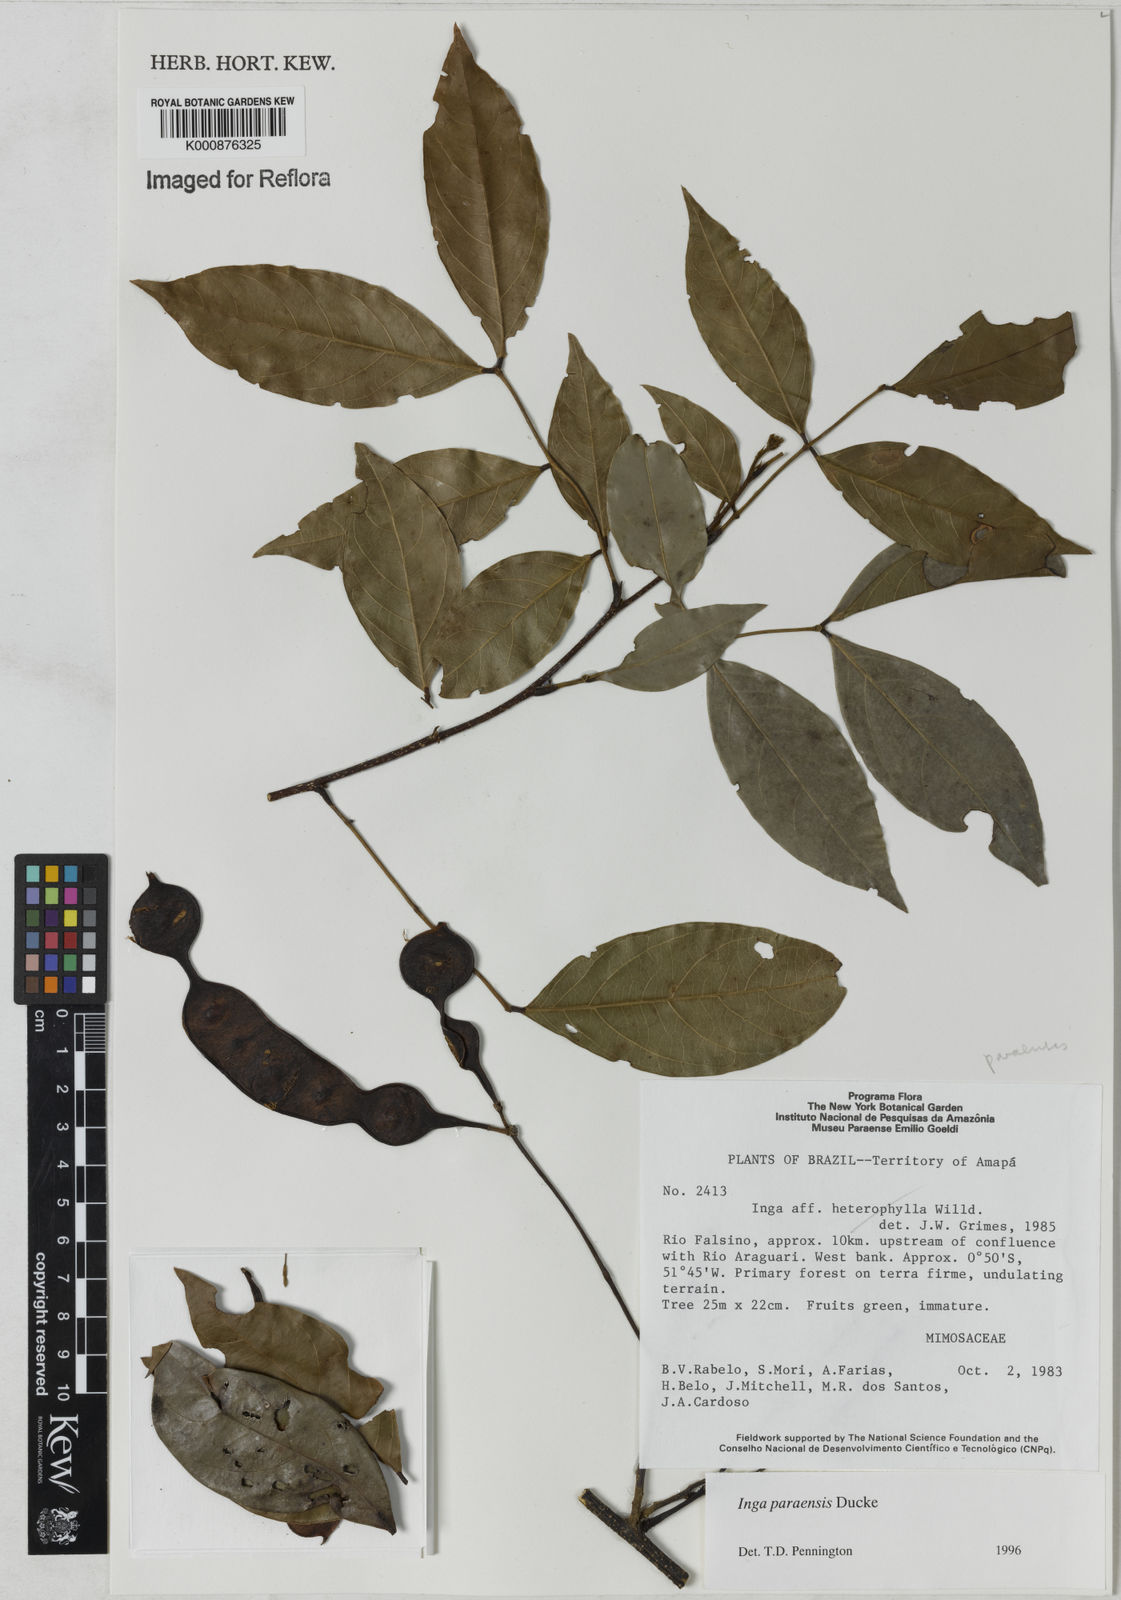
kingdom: Plantae
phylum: Tracheophyta
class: Magnoliopsida
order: Fabales
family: Fabaceae
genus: Inga
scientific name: Inga paraensis
